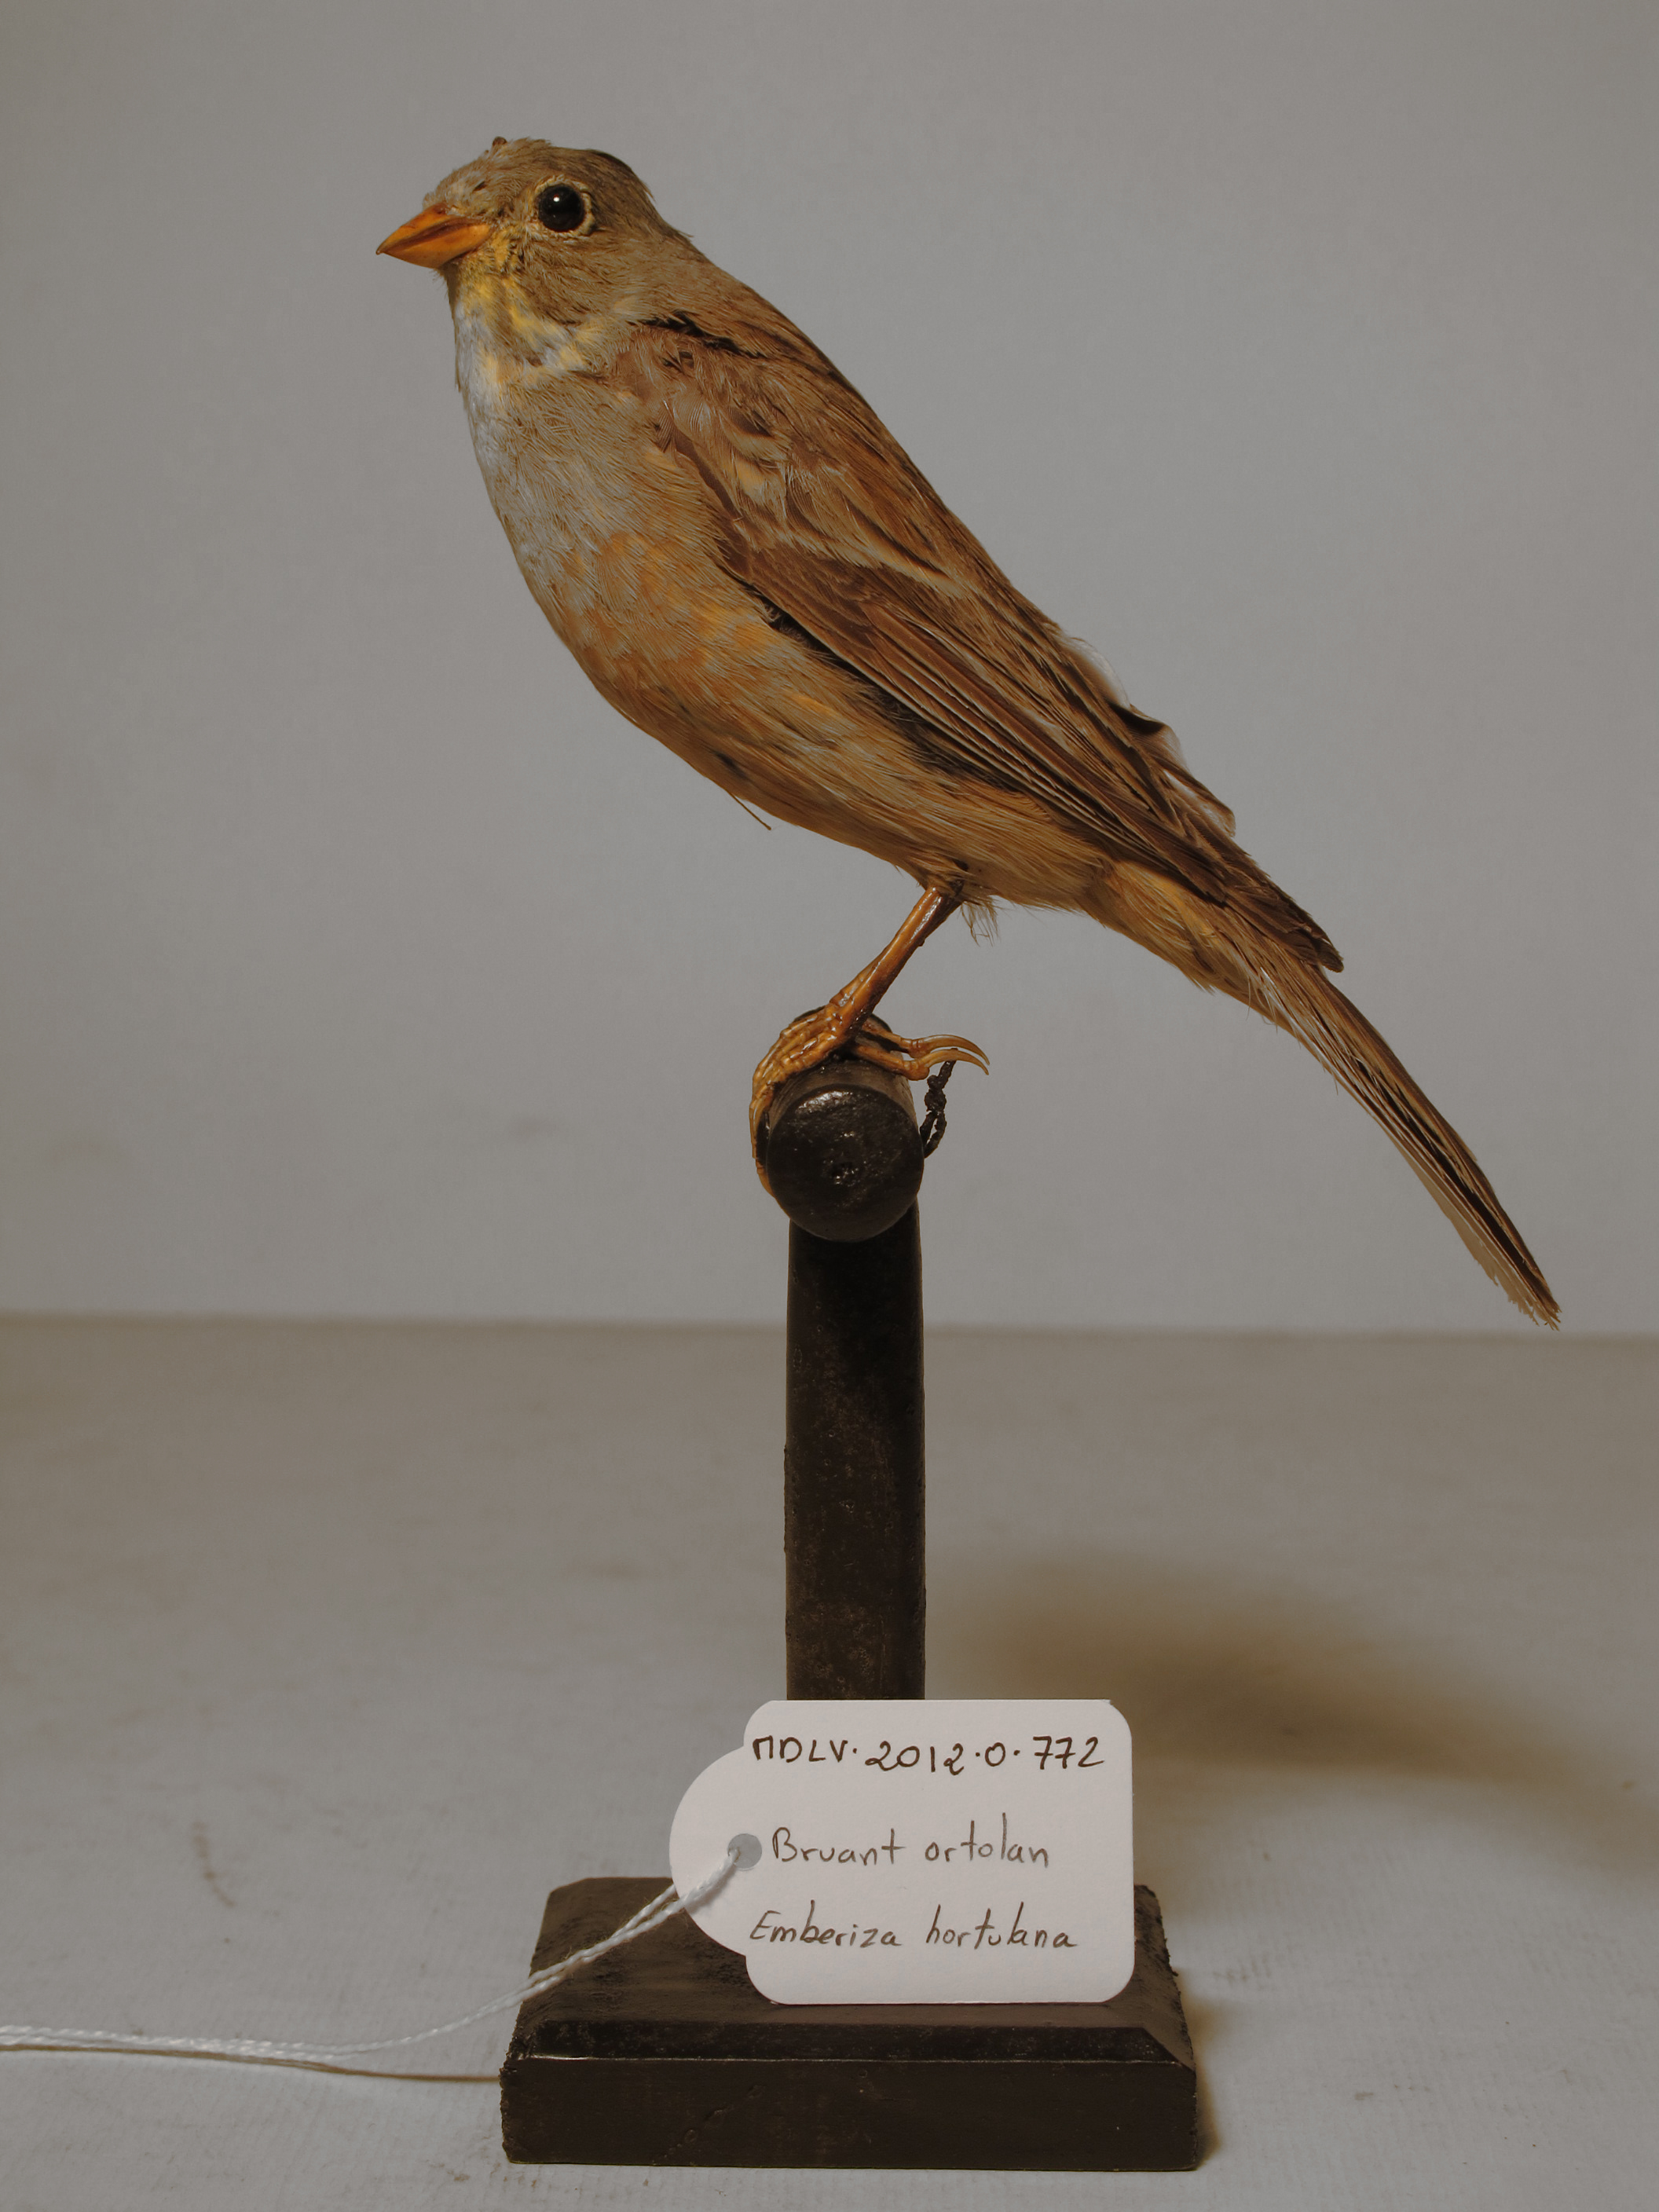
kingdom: Animalia
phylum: Chordata
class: Aves
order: Passeriformes
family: Emberizidae
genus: Emberiza
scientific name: Emberiza hortulana
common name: Ortolan Bunting
